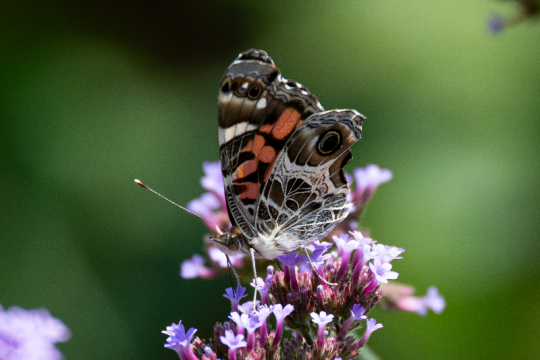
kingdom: Animalia
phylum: Arthropoda
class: Insecta
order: Lepidoptera
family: Nymphalidae
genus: Vanessa
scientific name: Vanessa virginiensis
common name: American Lady
